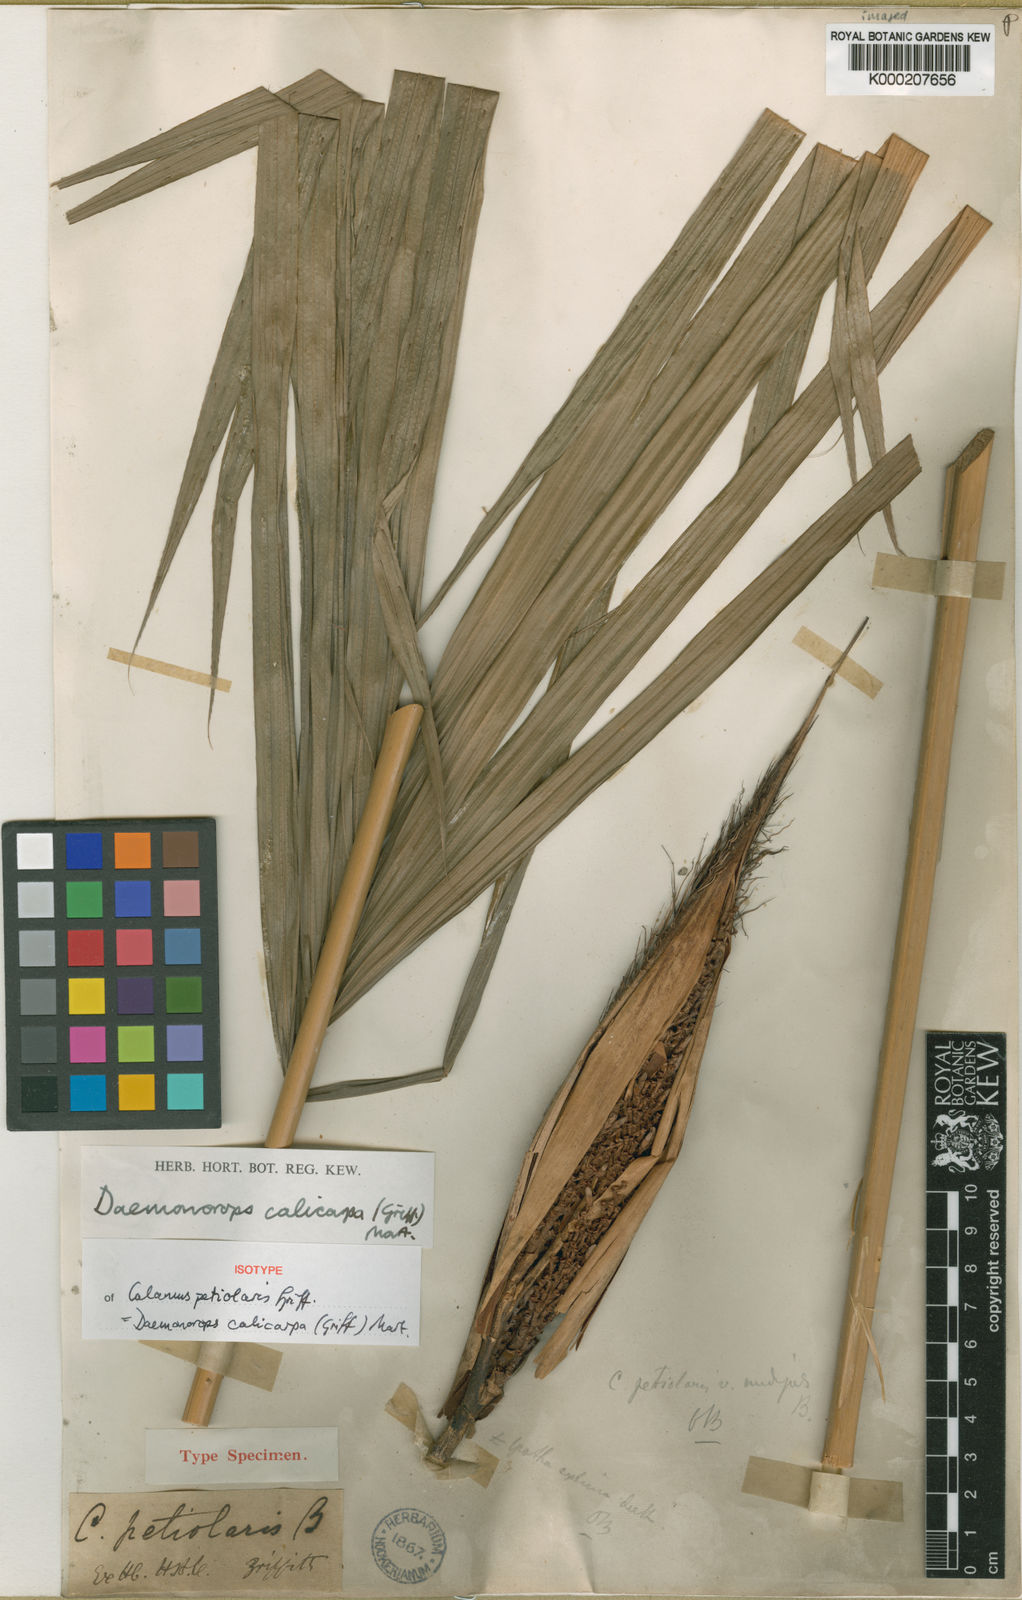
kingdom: Plantae
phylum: Tracheophyta
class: Liliopsida
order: Arecales
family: Arecaceae
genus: Calamus
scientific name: Calamus calicarpus
